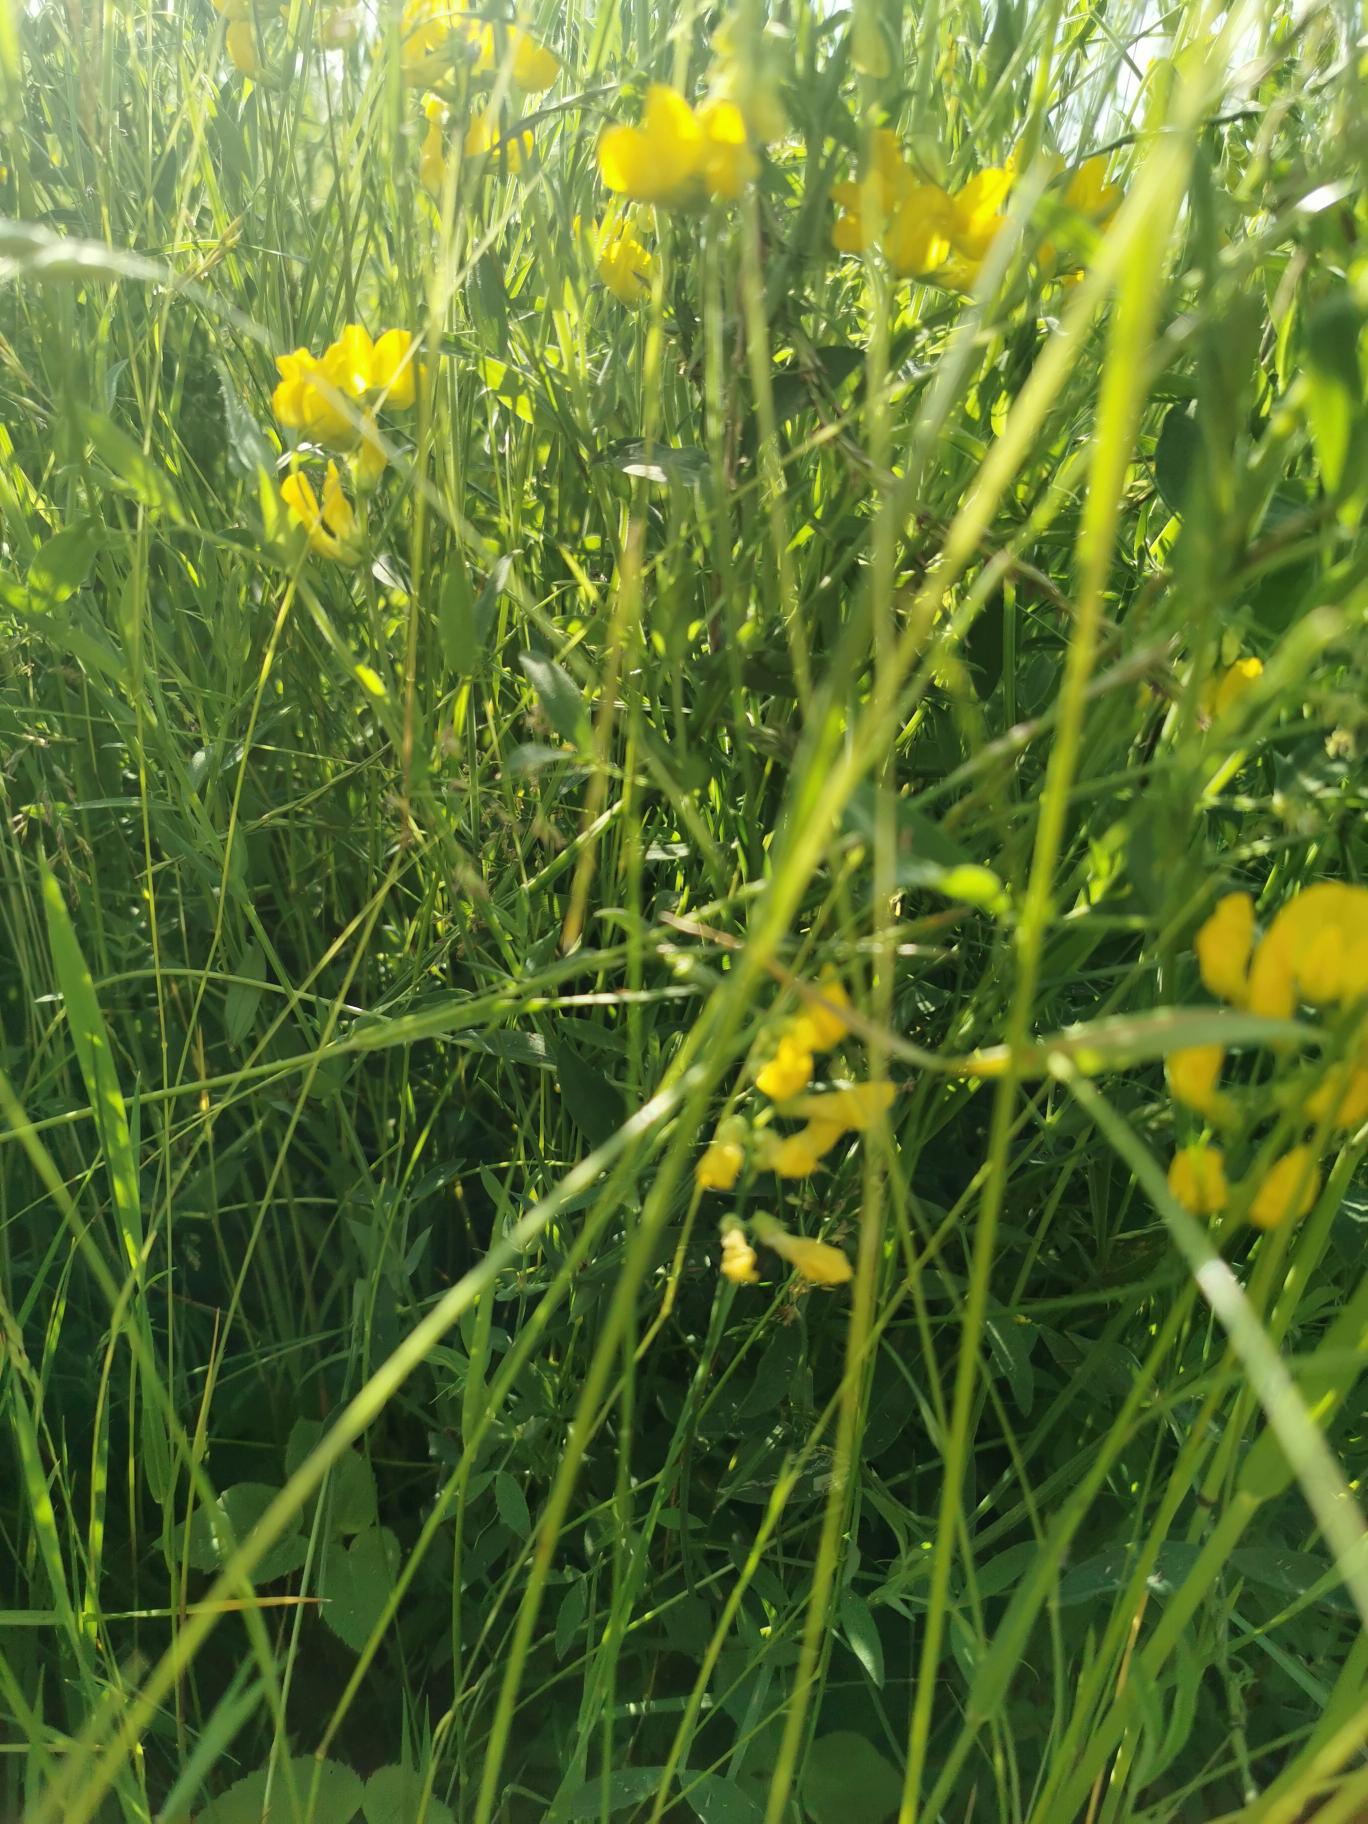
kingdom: Plantae
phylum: Tracheophyta
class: Magnoliopsida
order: Fabales
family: Fabaceae
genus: Lathyrus
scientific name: Lathyrus pratensis
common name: Gul fladbælg
